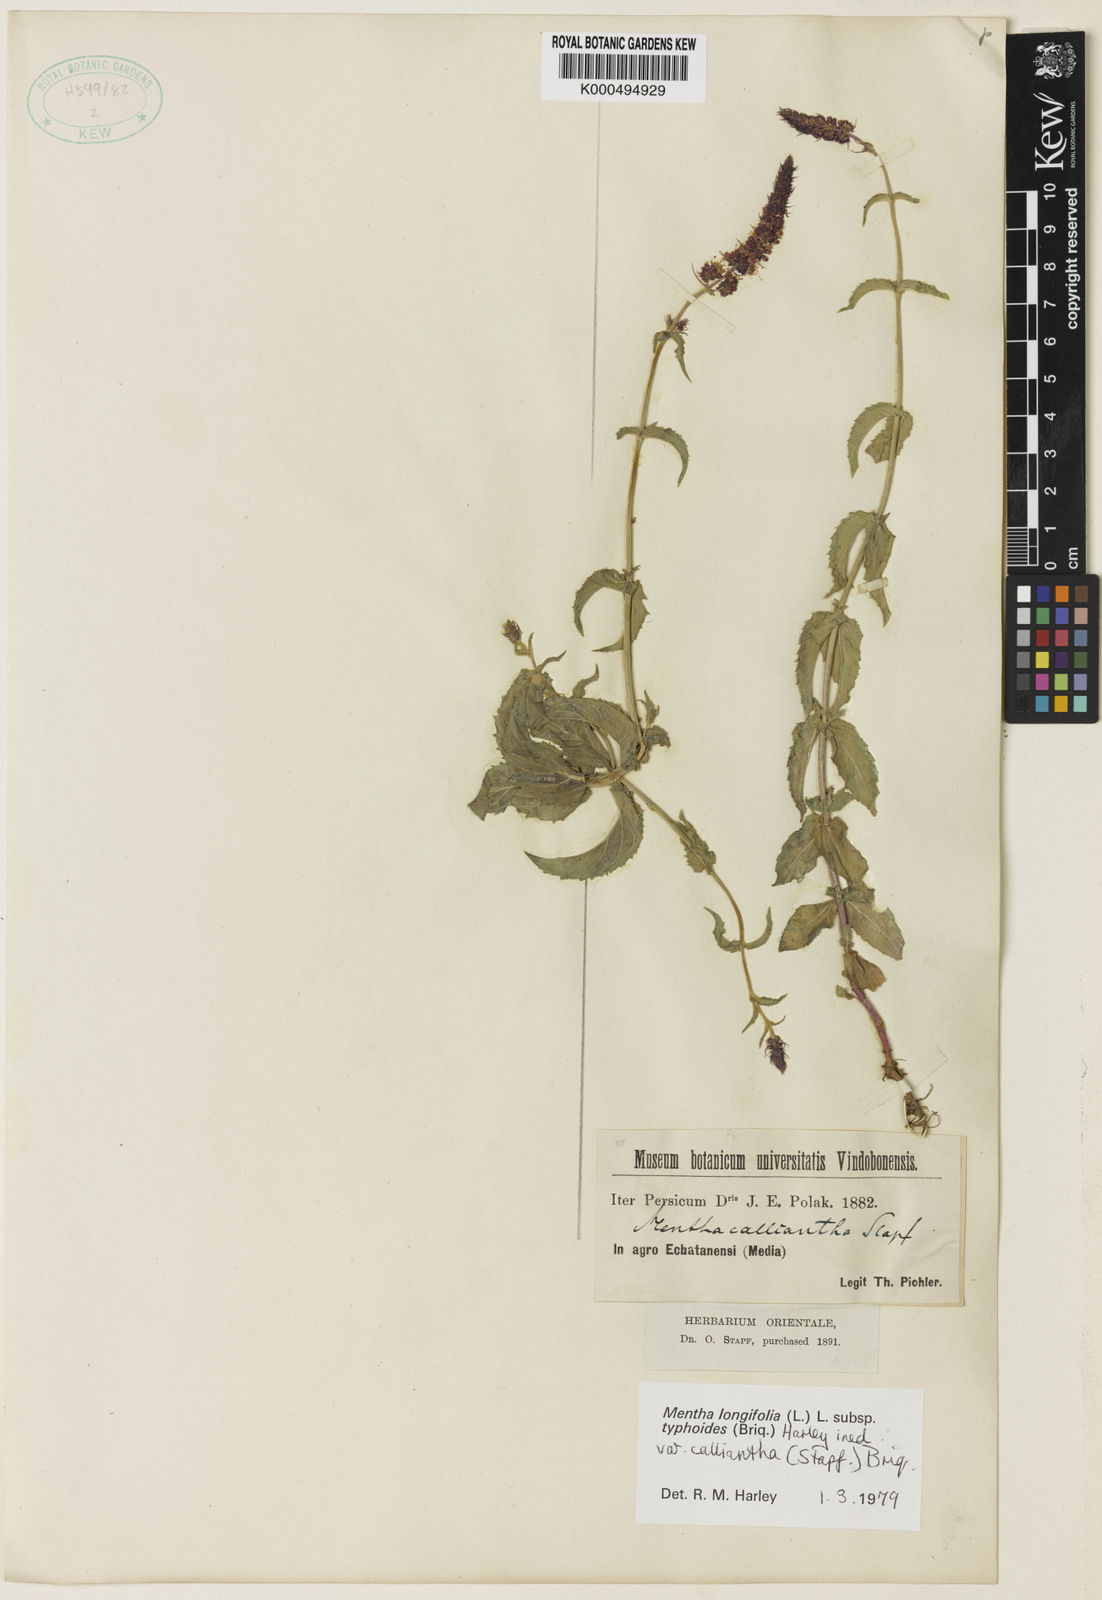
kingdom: Plantae
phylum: Tracheophyta
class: Magnoliopsida
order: Lamiales
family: Lamiaceae
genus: Mentha
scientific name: Mentha
